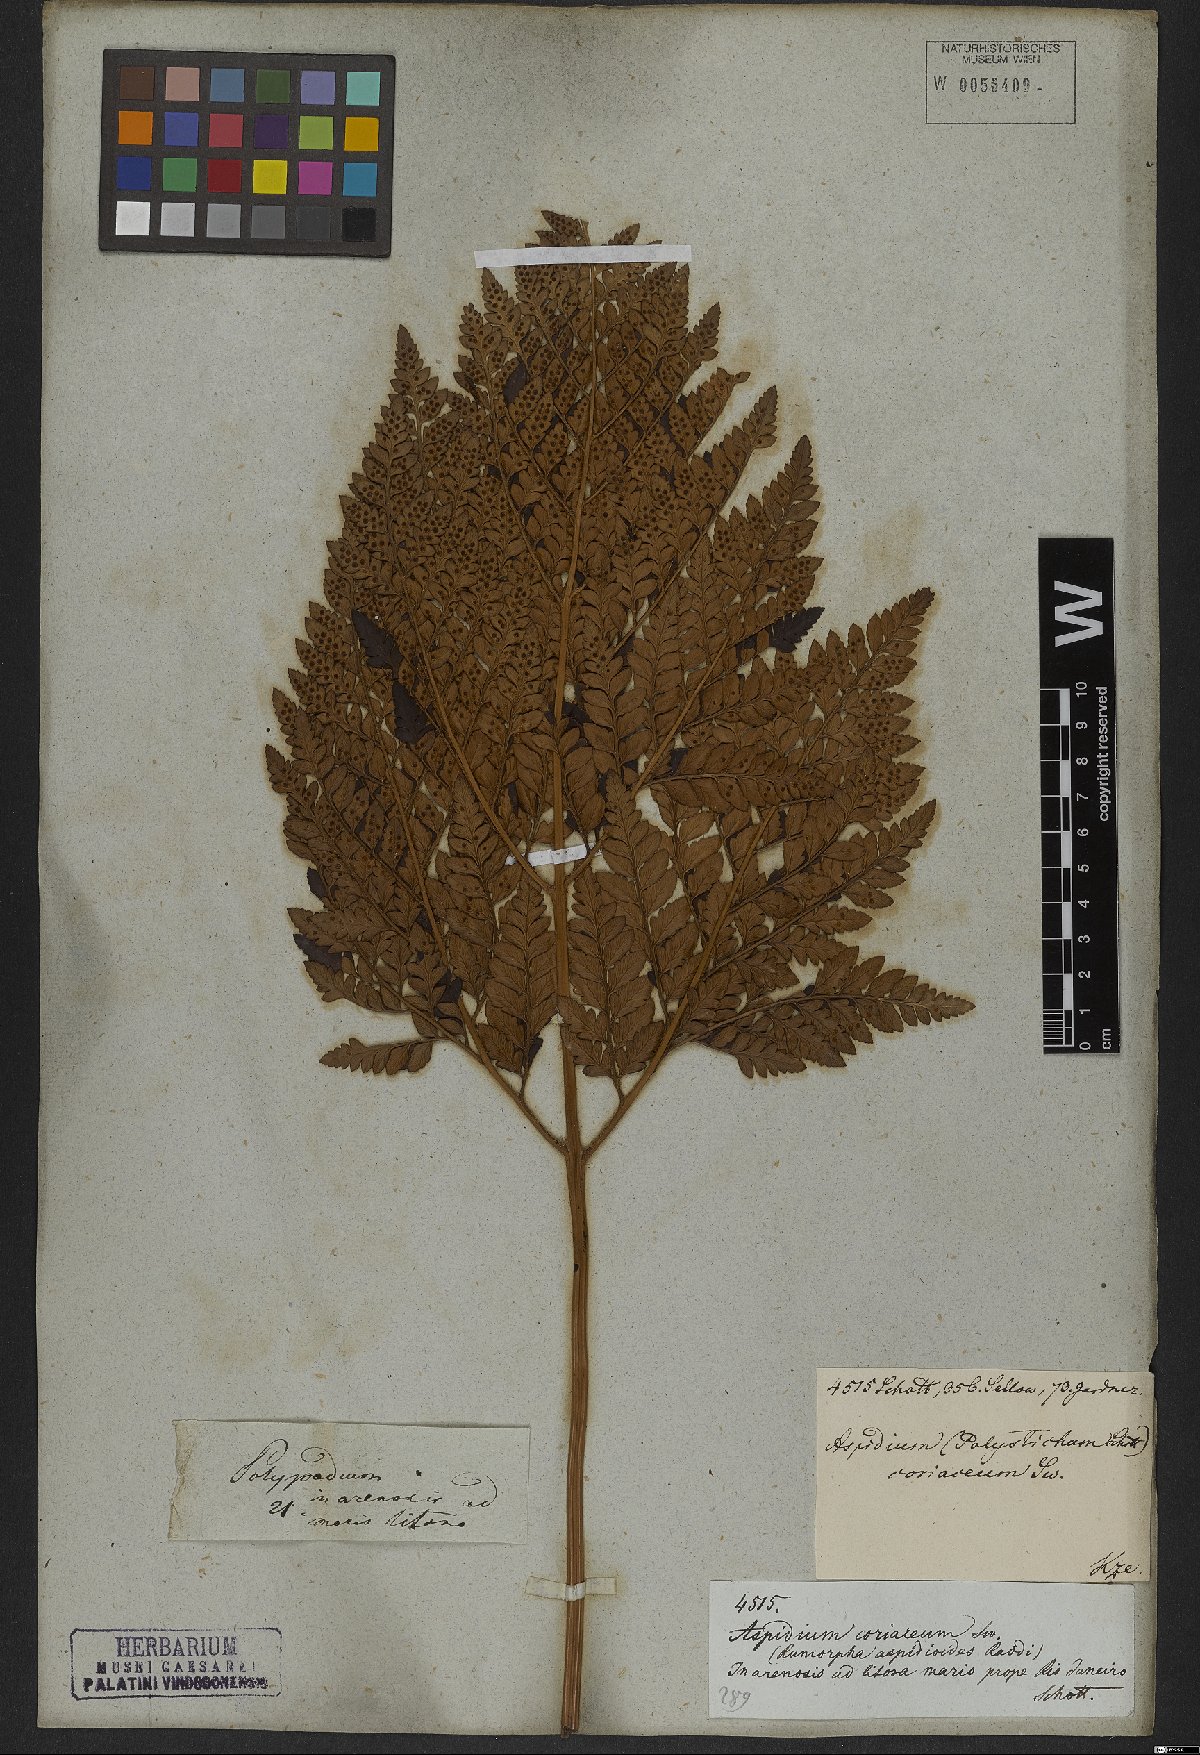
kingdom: Plantae
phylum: Tracheophyta
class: Polypodiopsida
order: Polypodiales
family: Dryopteridaceae
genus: Rumohra
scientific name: Rumohra adiantiformis
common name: Leather fern
